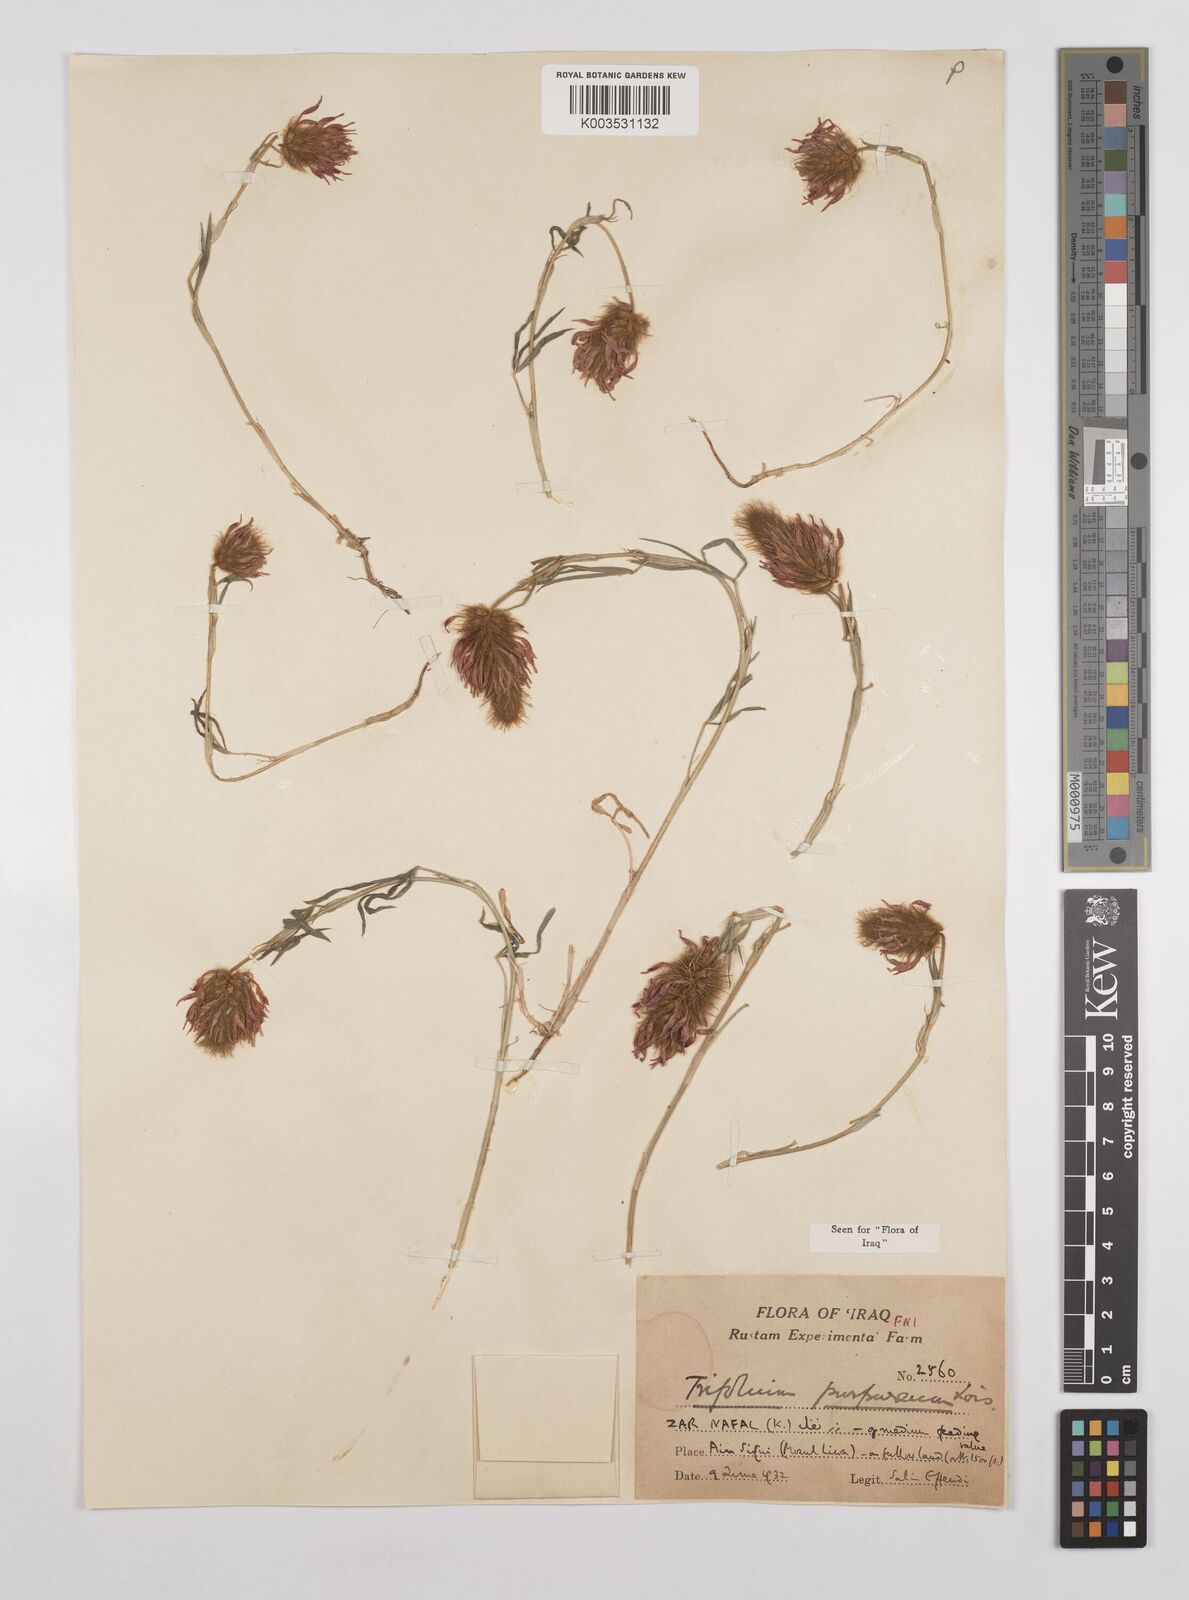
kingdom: Plantae
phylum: Tracheophyta
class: Magnoliopsida
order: Fabales
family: Fabaceae
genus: Trifolium
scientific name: Trifolium purpureum
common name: Purple clover
